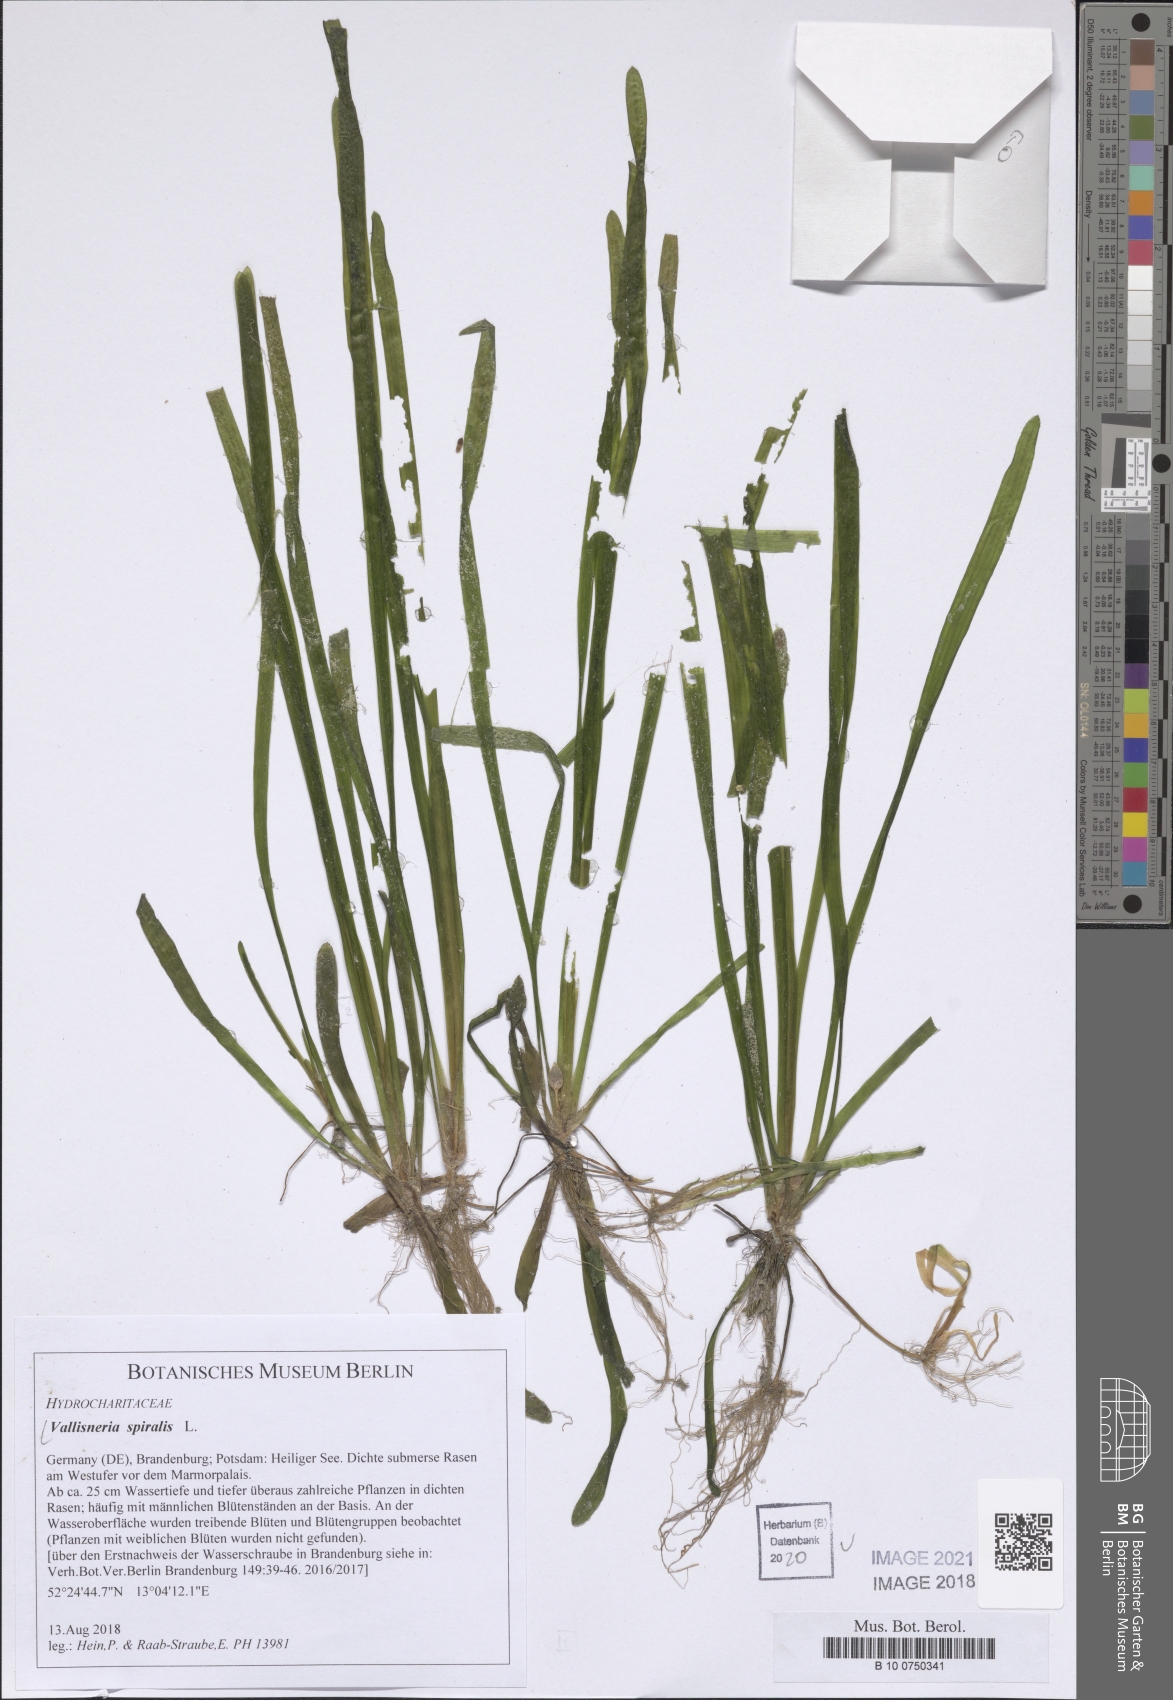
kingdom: Plantae
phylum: Tracheophyta
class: Liliopsida
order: Alismatales
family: Hydrocharitaceae
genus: Vallisneria
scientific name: Vallisneria spiralis
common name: Tapegrass
